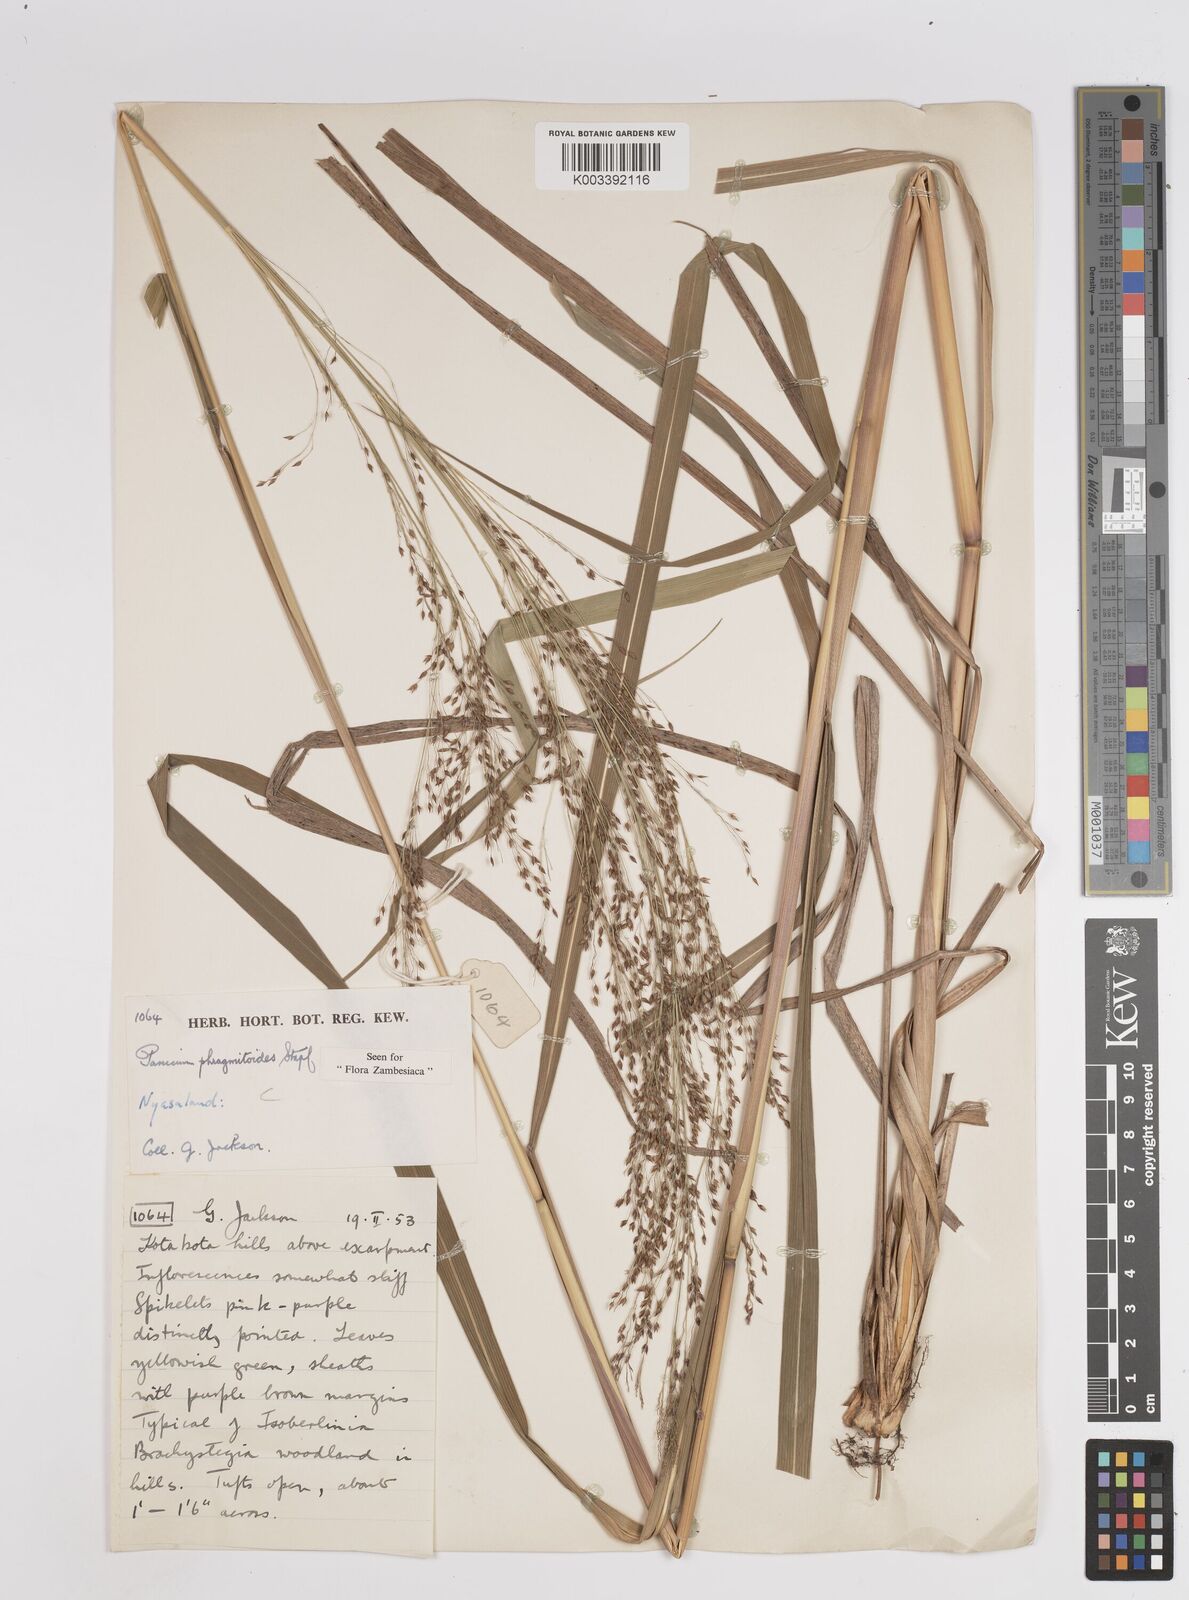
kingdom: Plantae
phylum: Tracheophyta
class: Liliopsida
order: Poales
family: Poaceae
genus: Panicum
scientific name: Panicum phragmitoides
